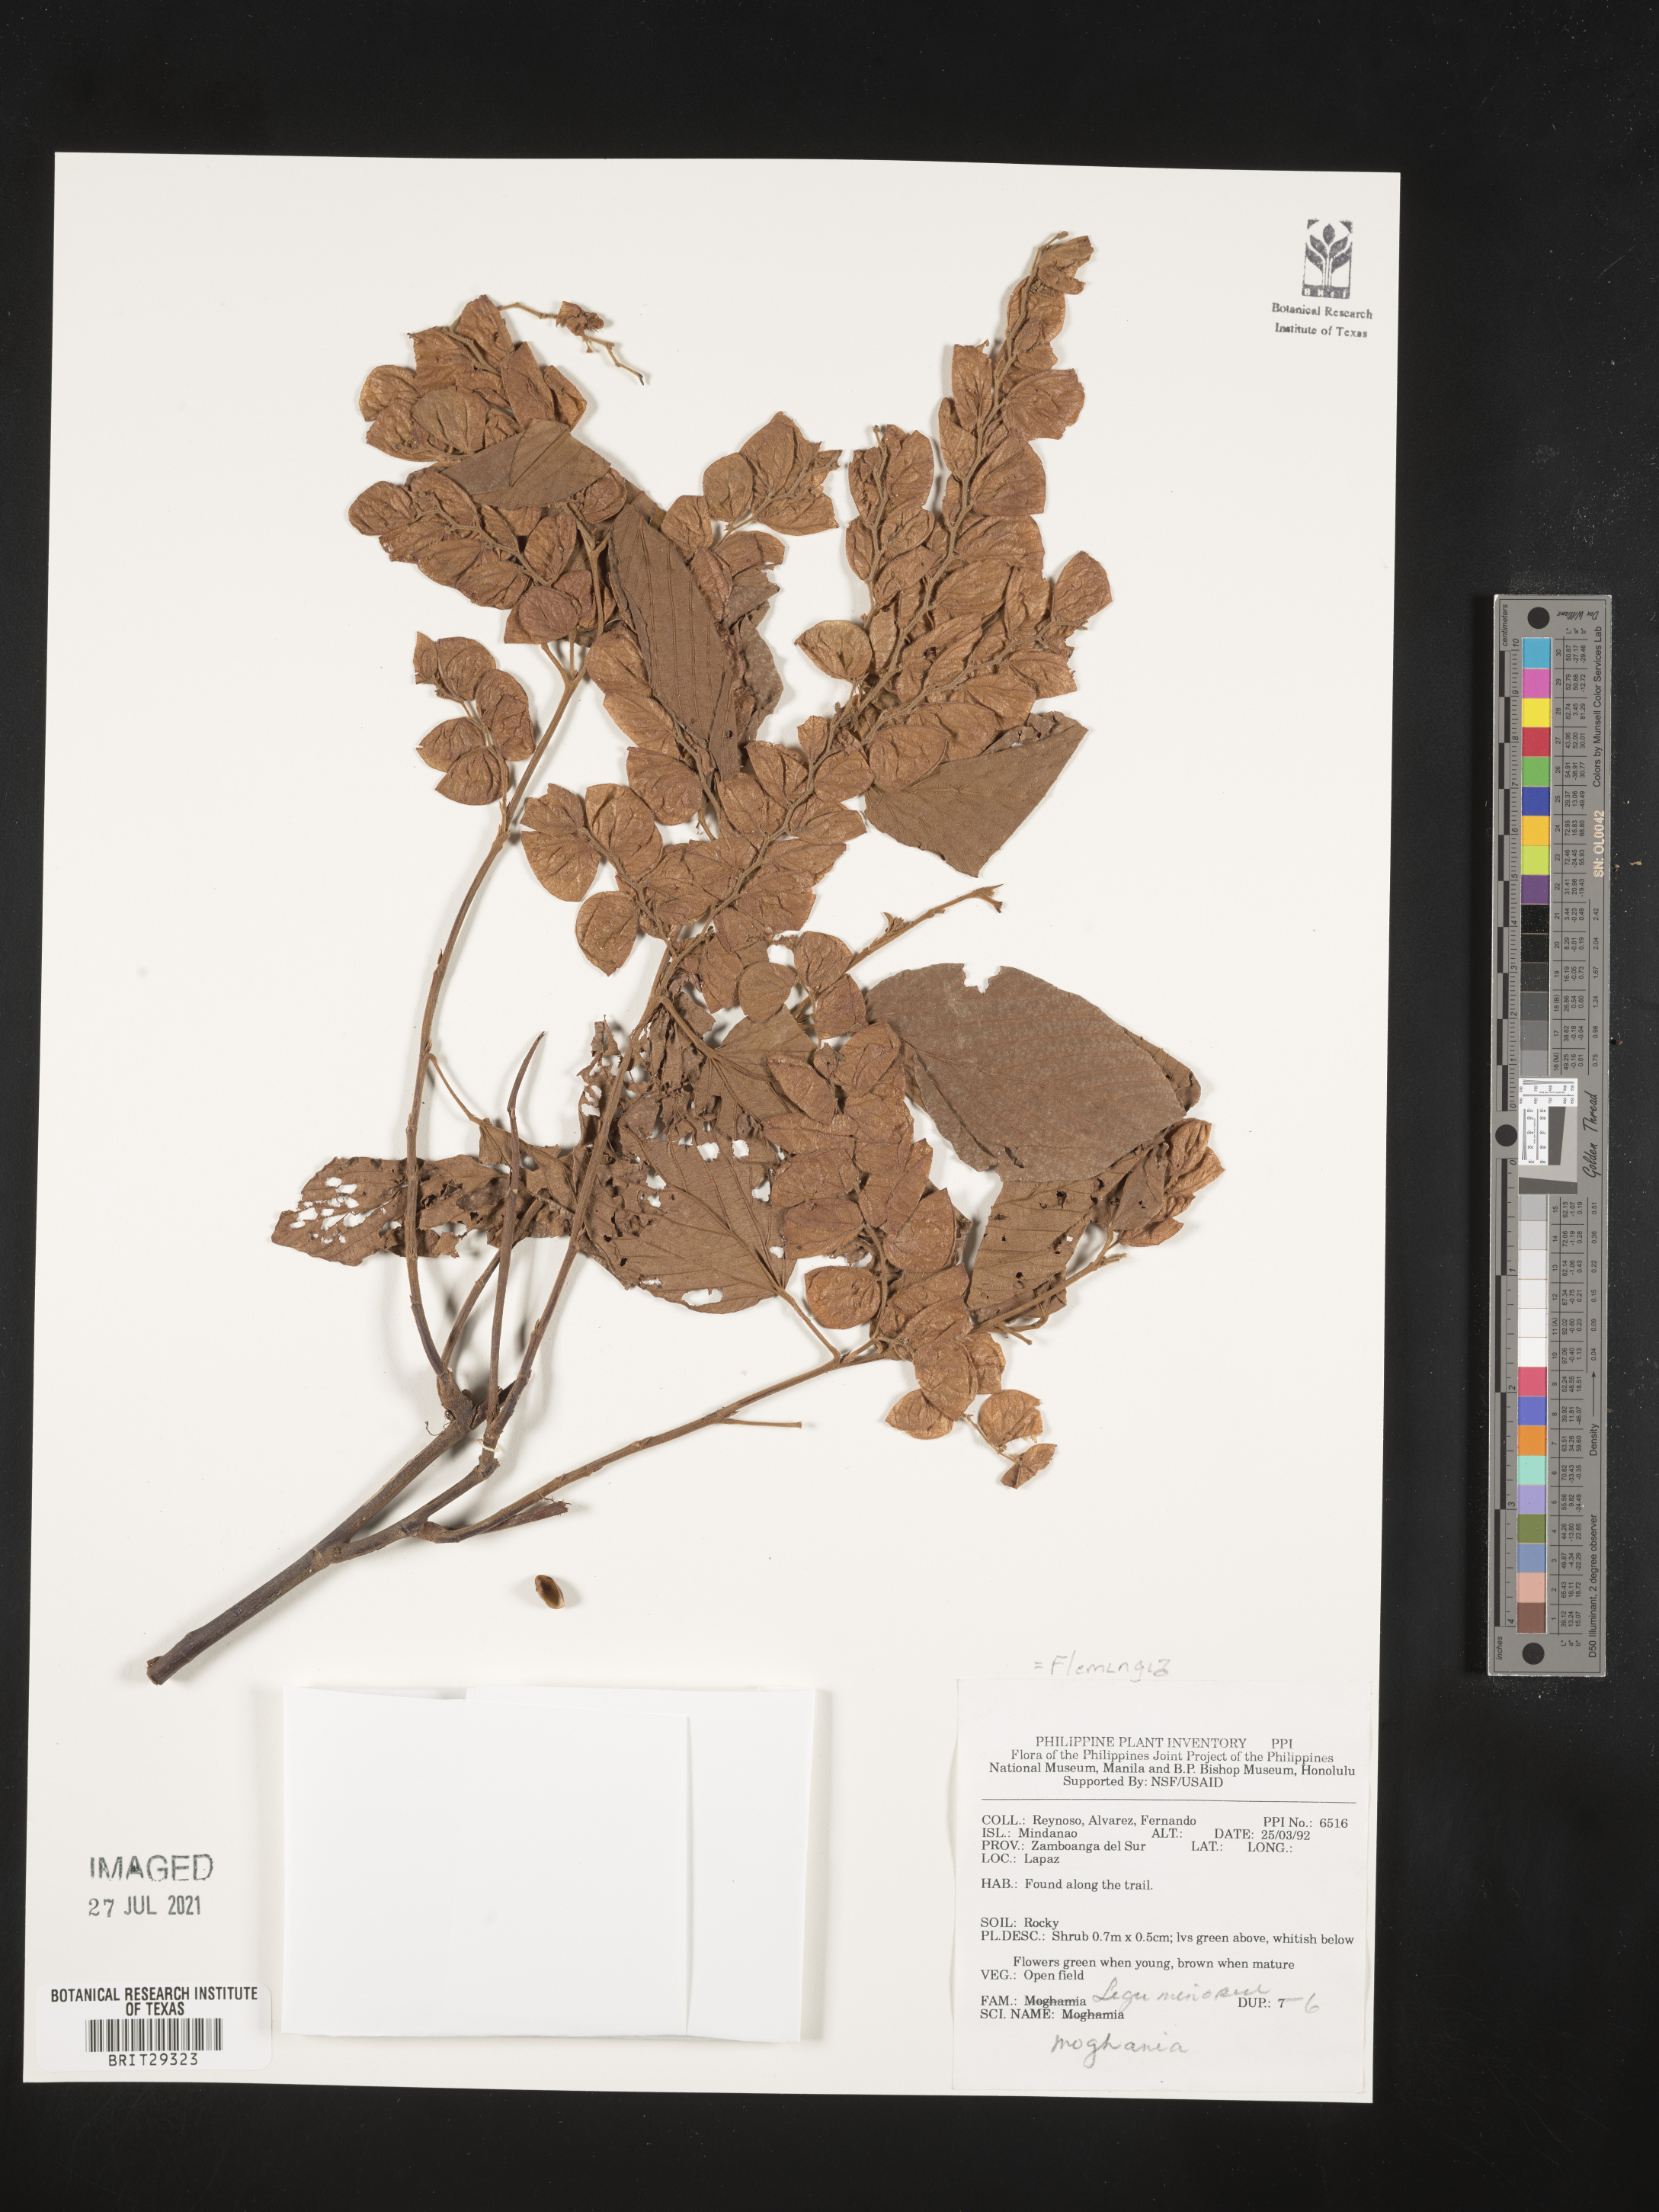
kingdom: Plantae
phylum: Tracheophyta
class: Magnoliopsida
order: Fabales
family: Fabaceae
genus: Flemingia
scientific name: Flemingia
